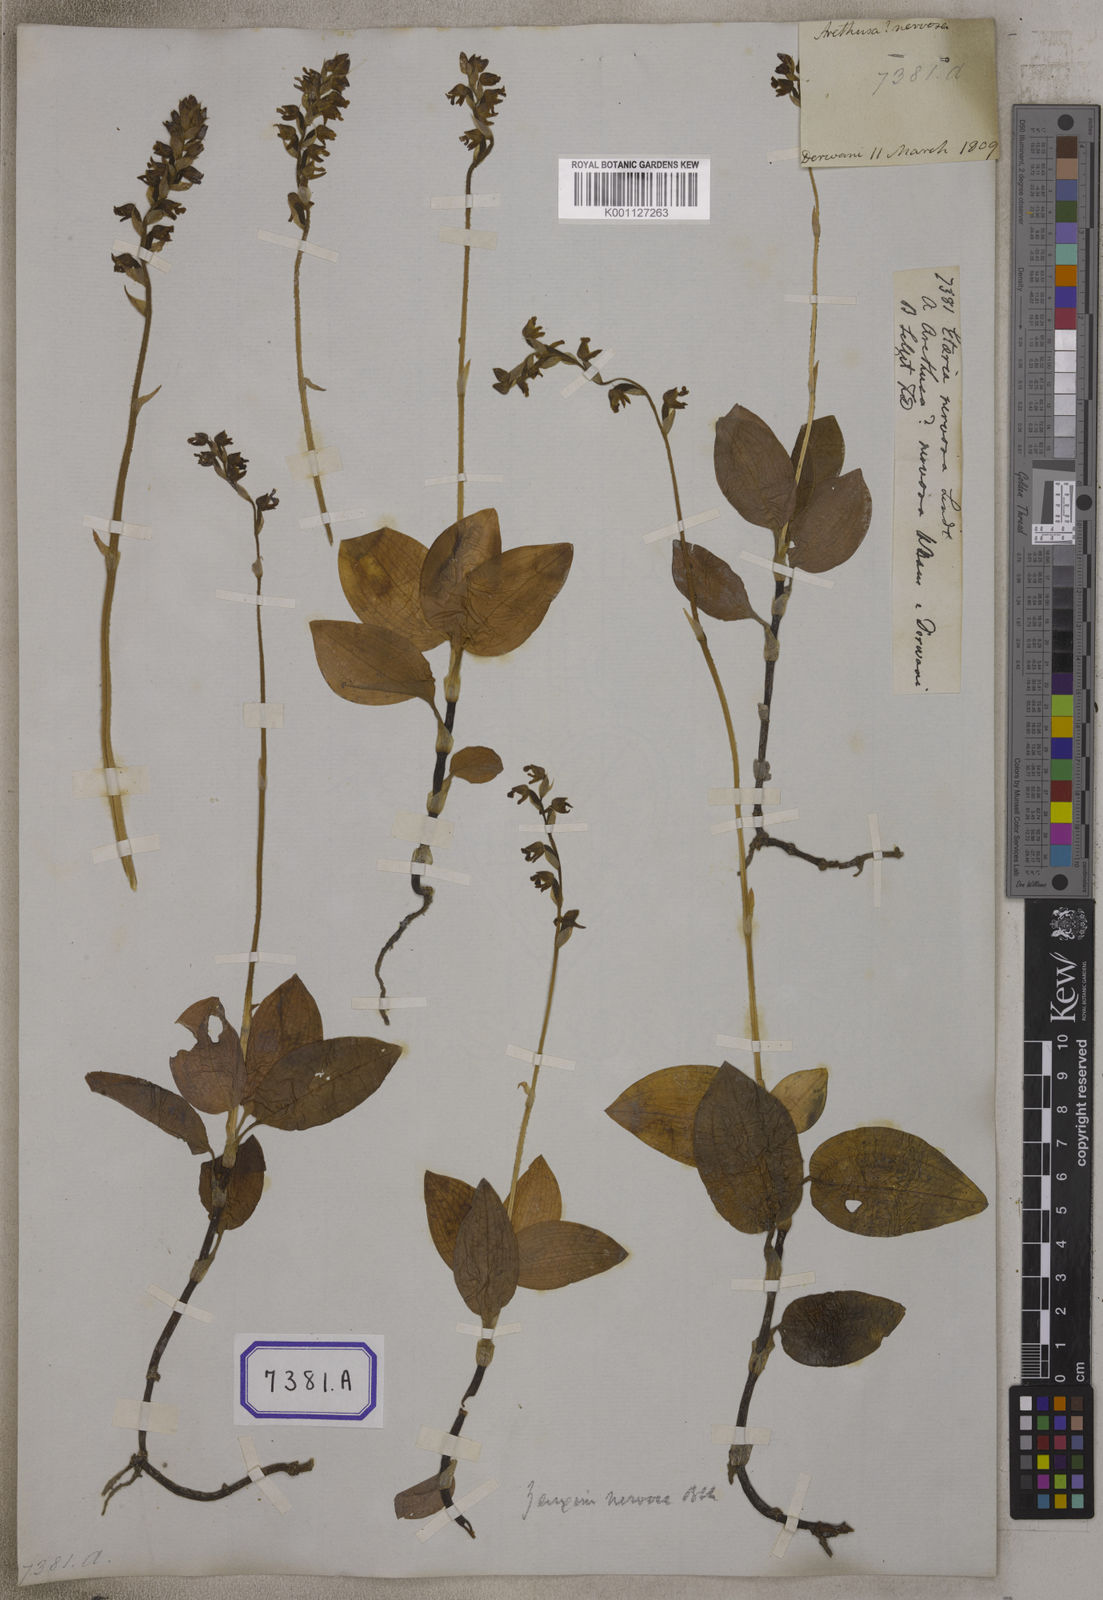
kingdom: Plantae
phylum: Tracheophyta
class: Liliopsida
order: Asparagales
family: Orchidaceae
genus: Hetaeria
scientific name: Hetaeria
